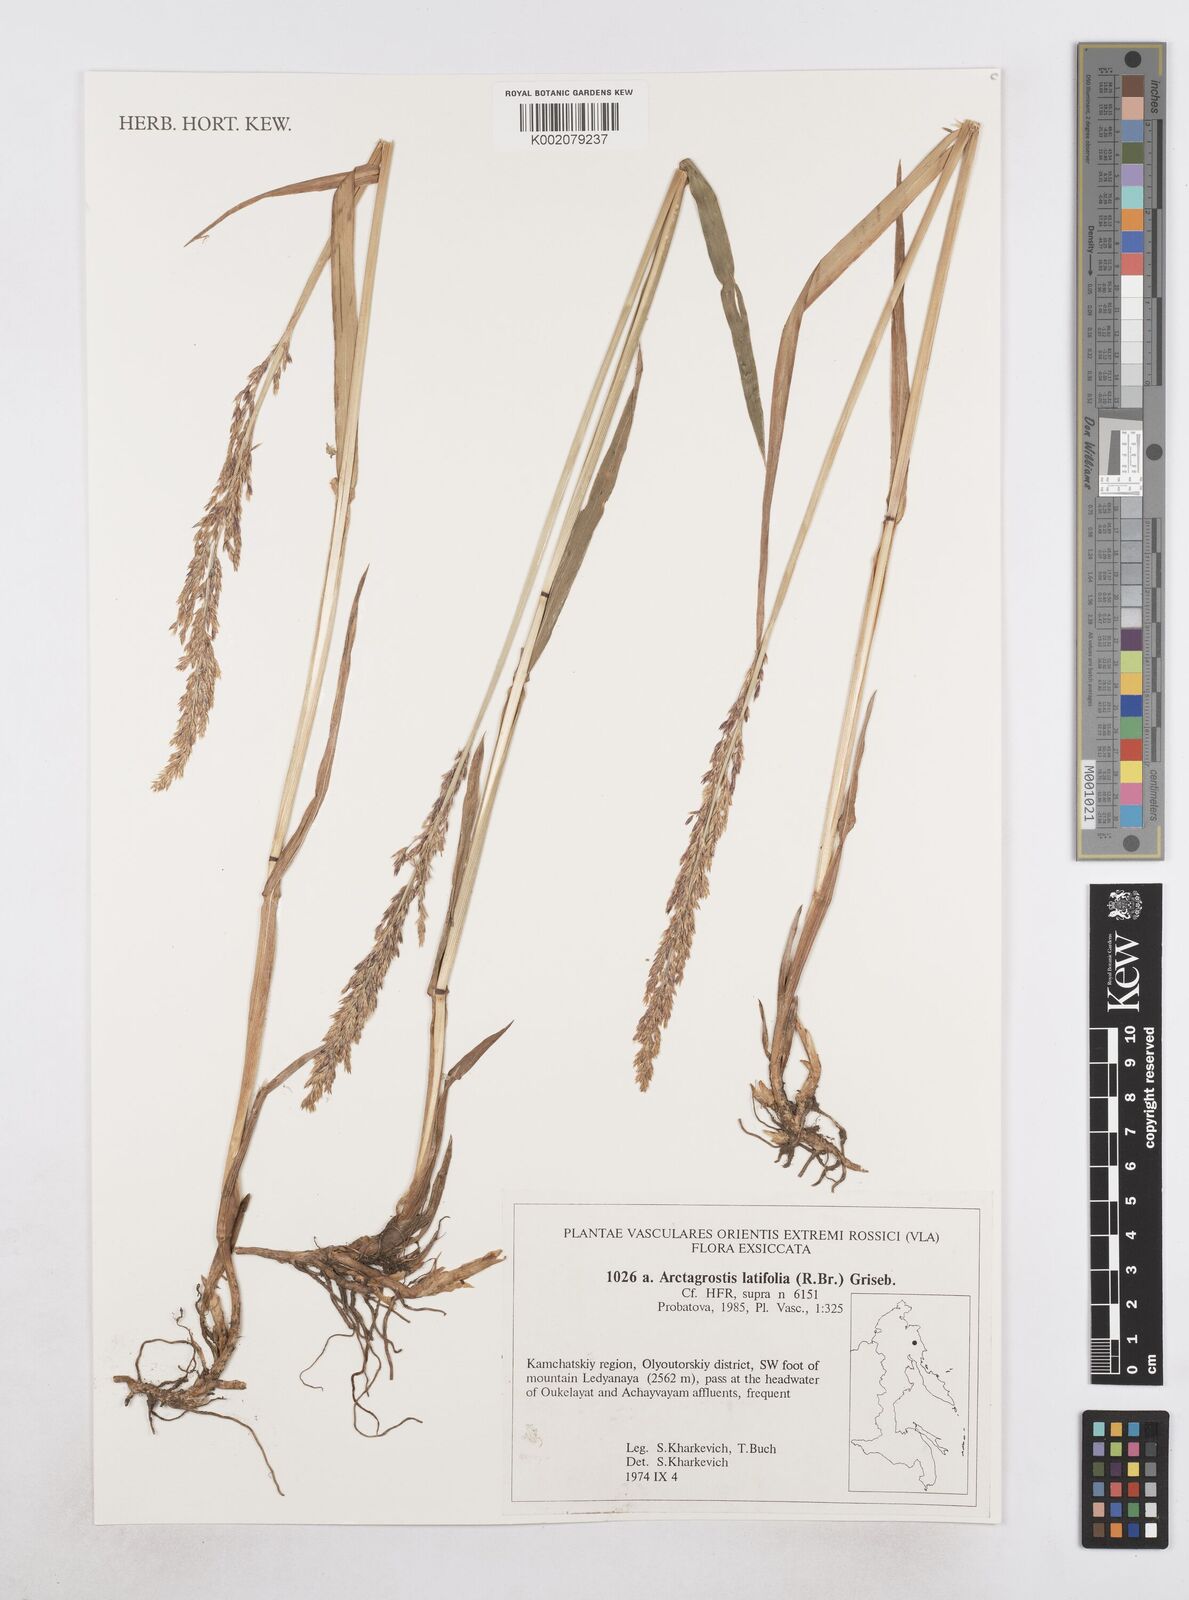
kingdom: Plantae
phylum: Tracheophyta
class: Liliopsida
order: Poales
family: Poaceae
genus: Arctagrostis
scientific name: Arctagrostis latifolia
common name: Arctic grass
